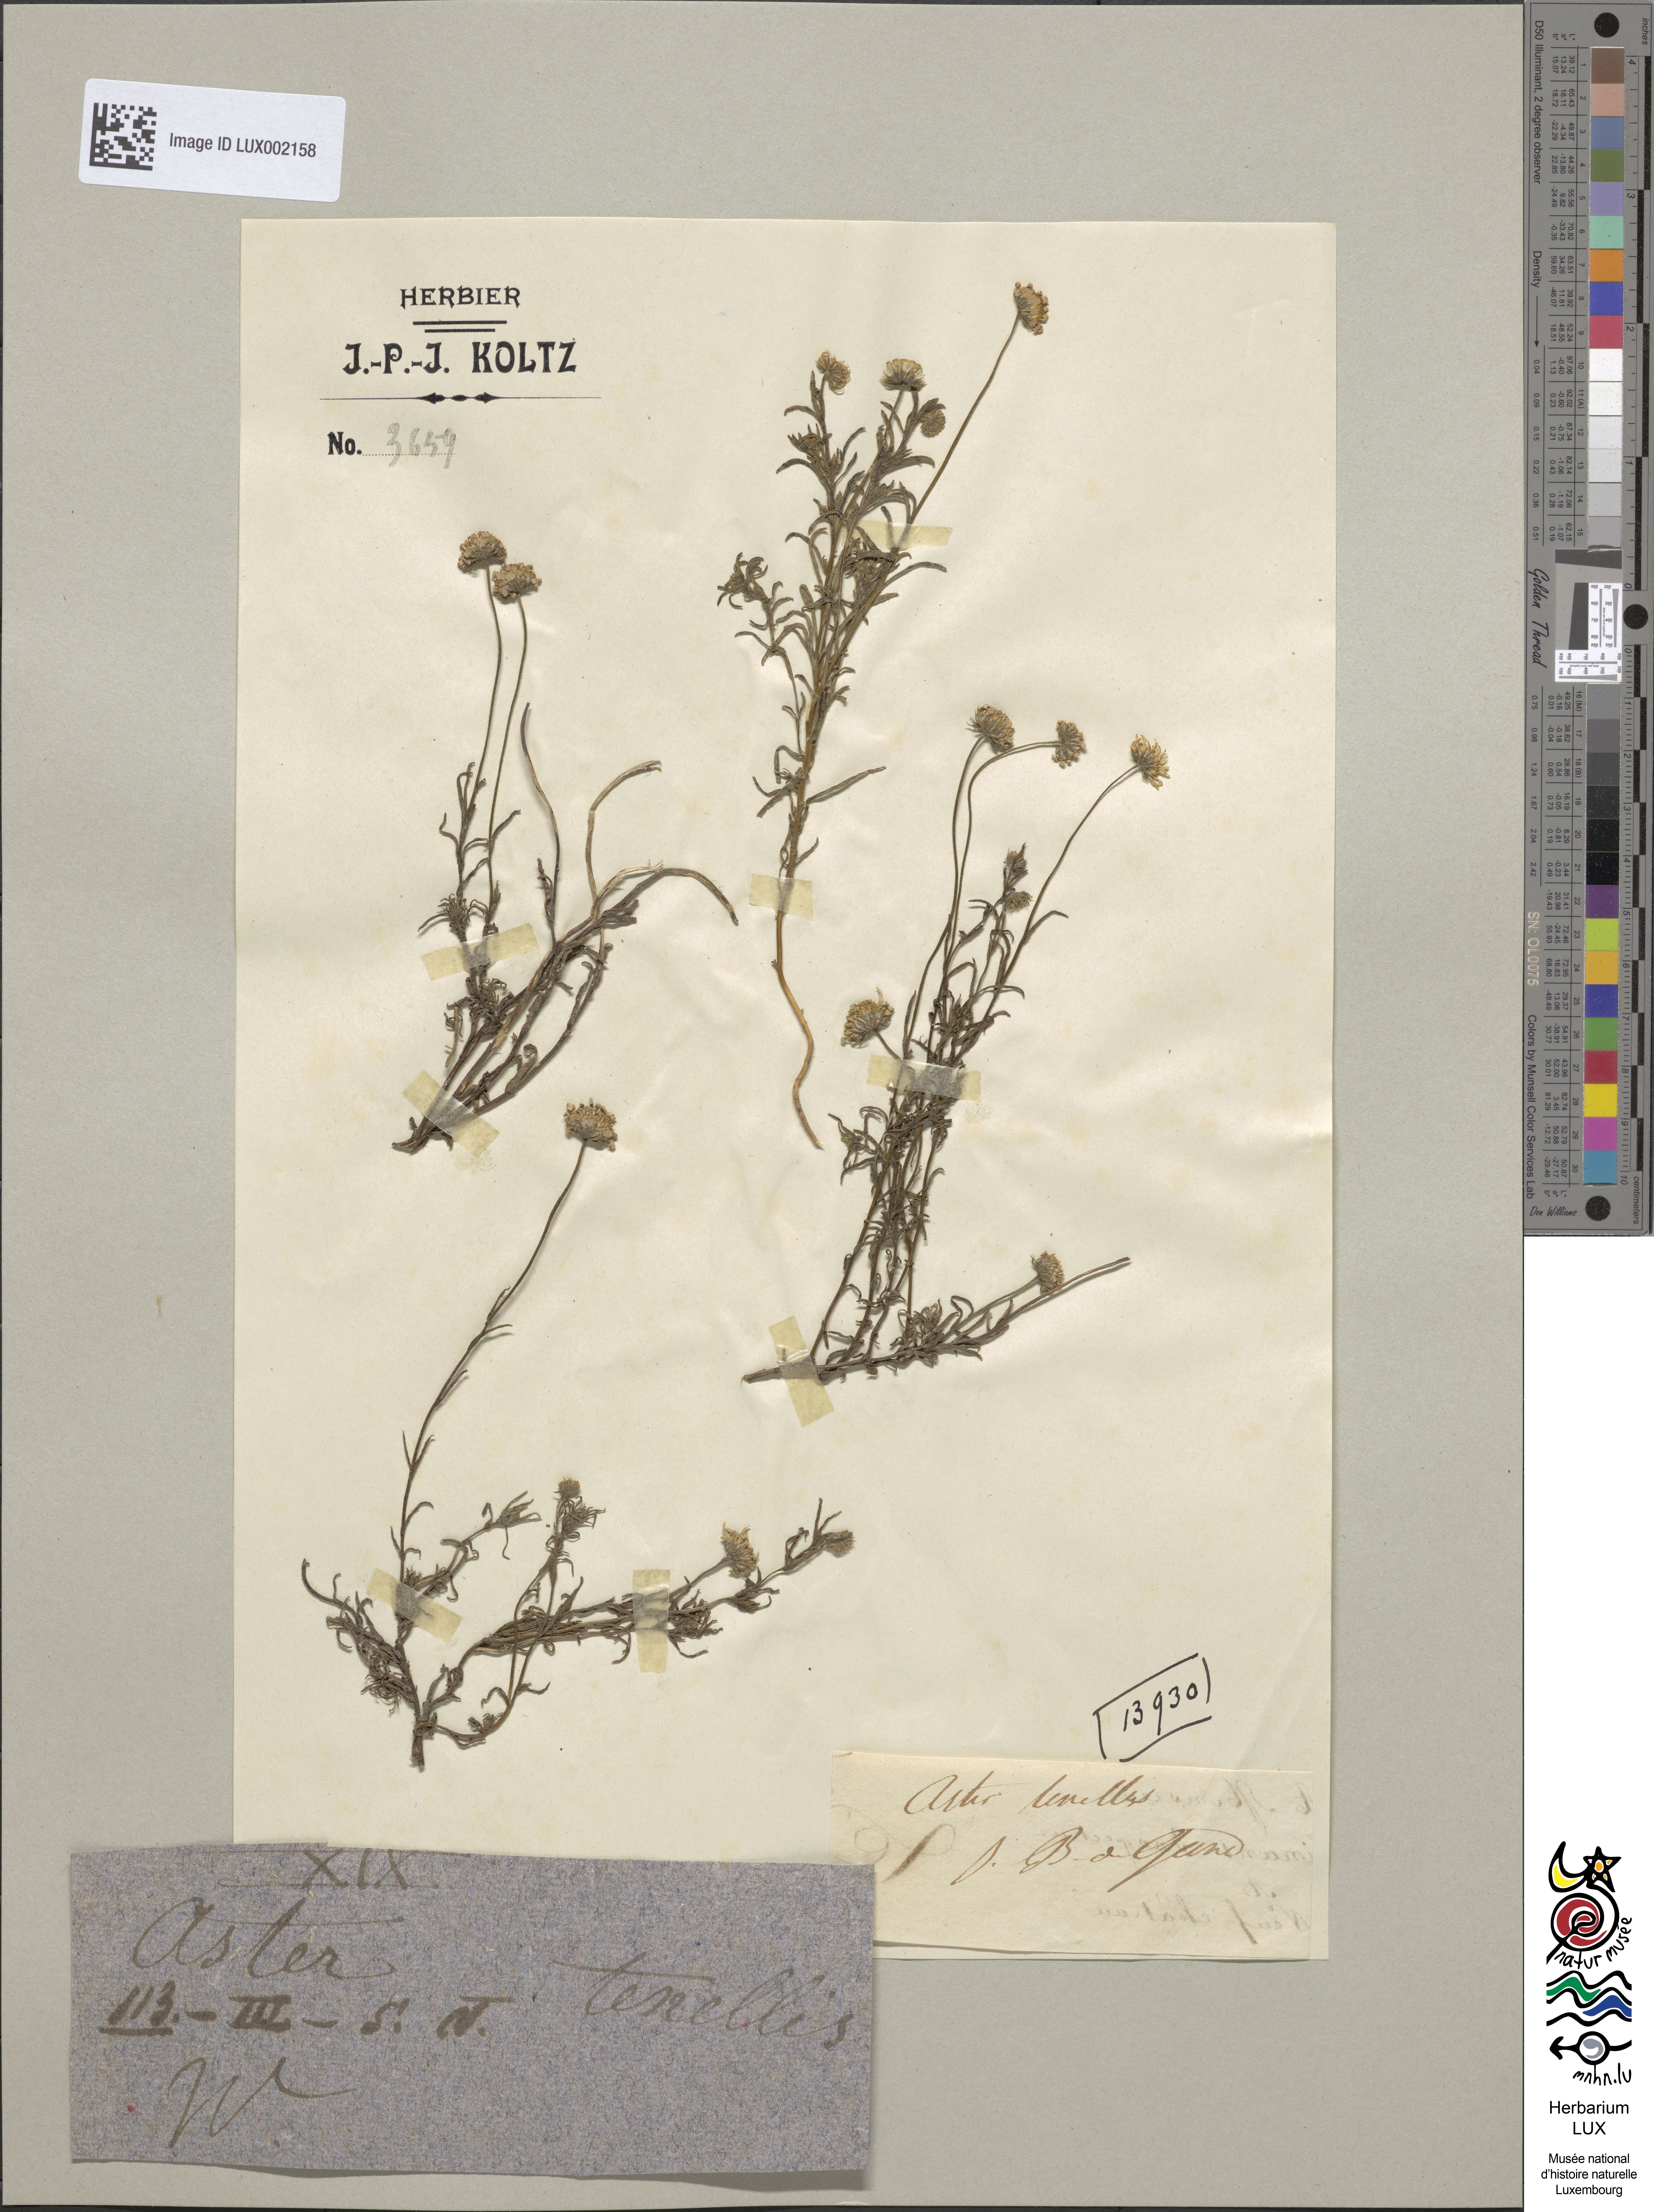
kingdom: Plantae
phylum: Tracheophyta
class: Magnoliopsida
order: Asterales
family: Asteraceae
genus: Felicia
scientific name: Felicia tenella
